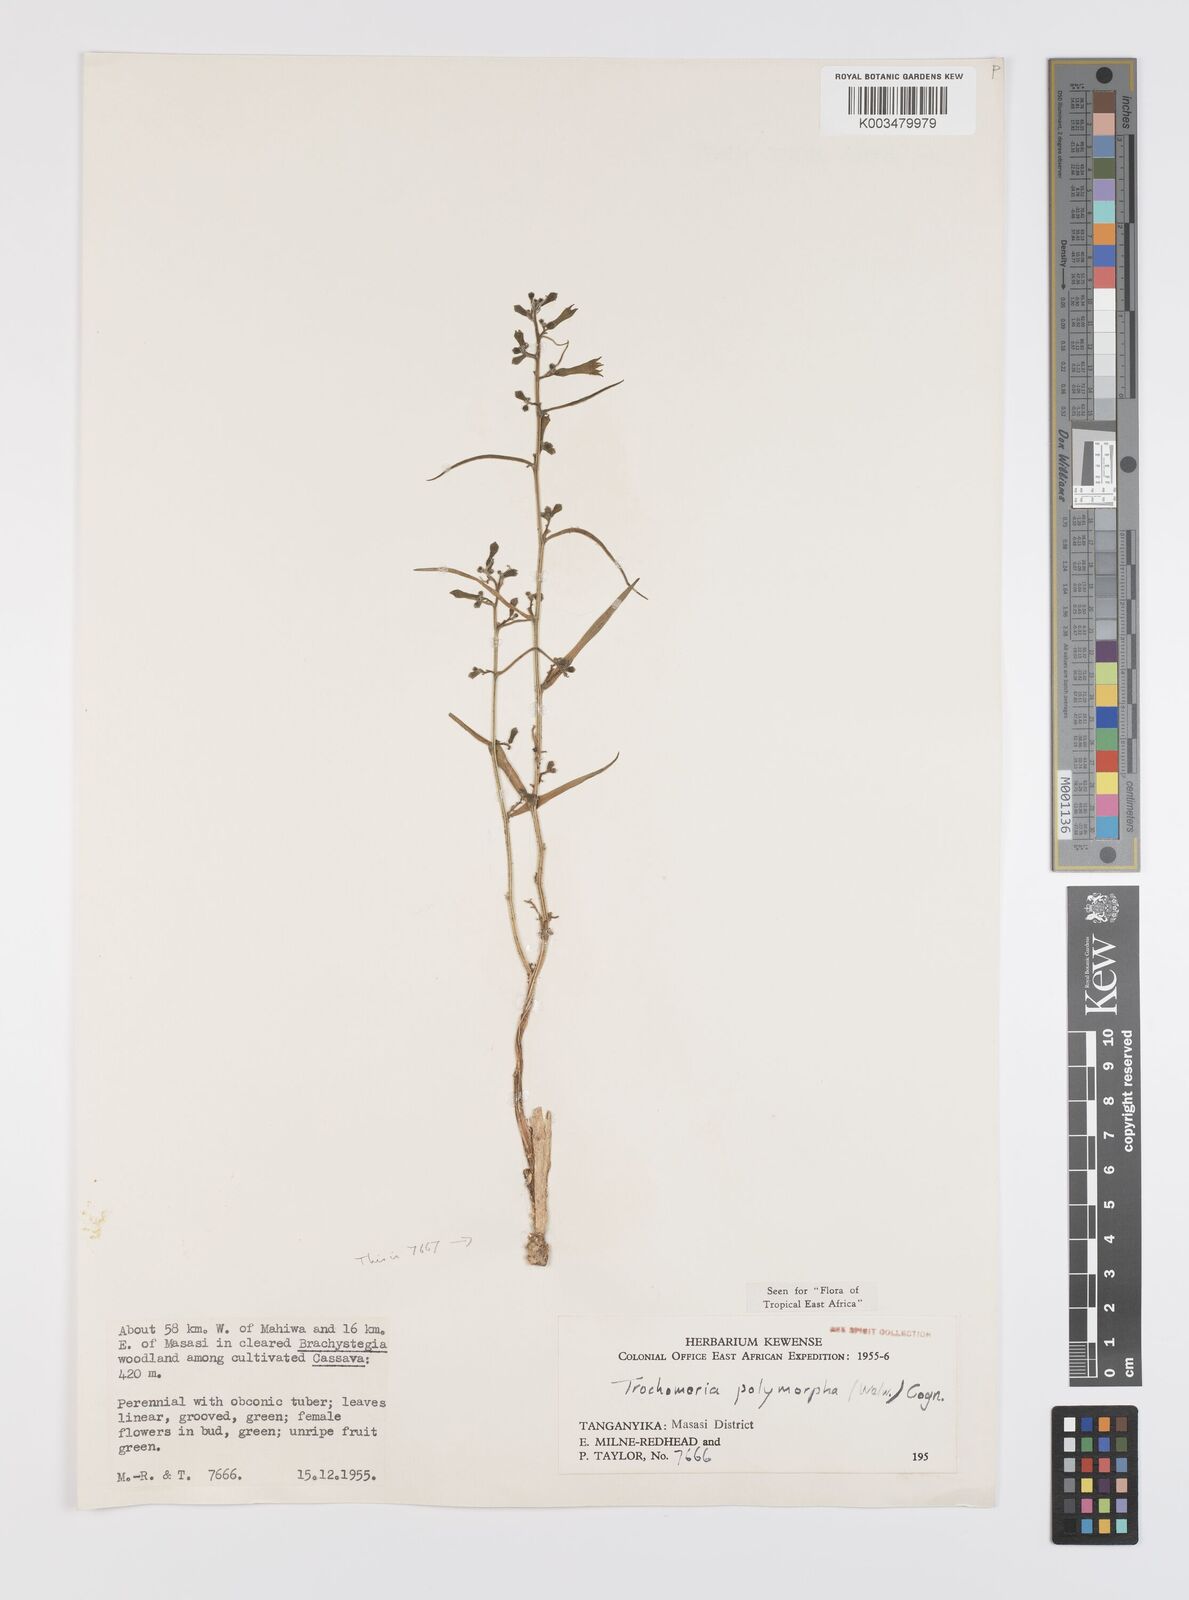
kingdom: Plantae
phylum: Tracheophyta
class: Magnoliopsida
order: Cucurbitales
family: Cucurbitaceae
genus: Trochomeria
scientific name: Trochomeria polymorpha
